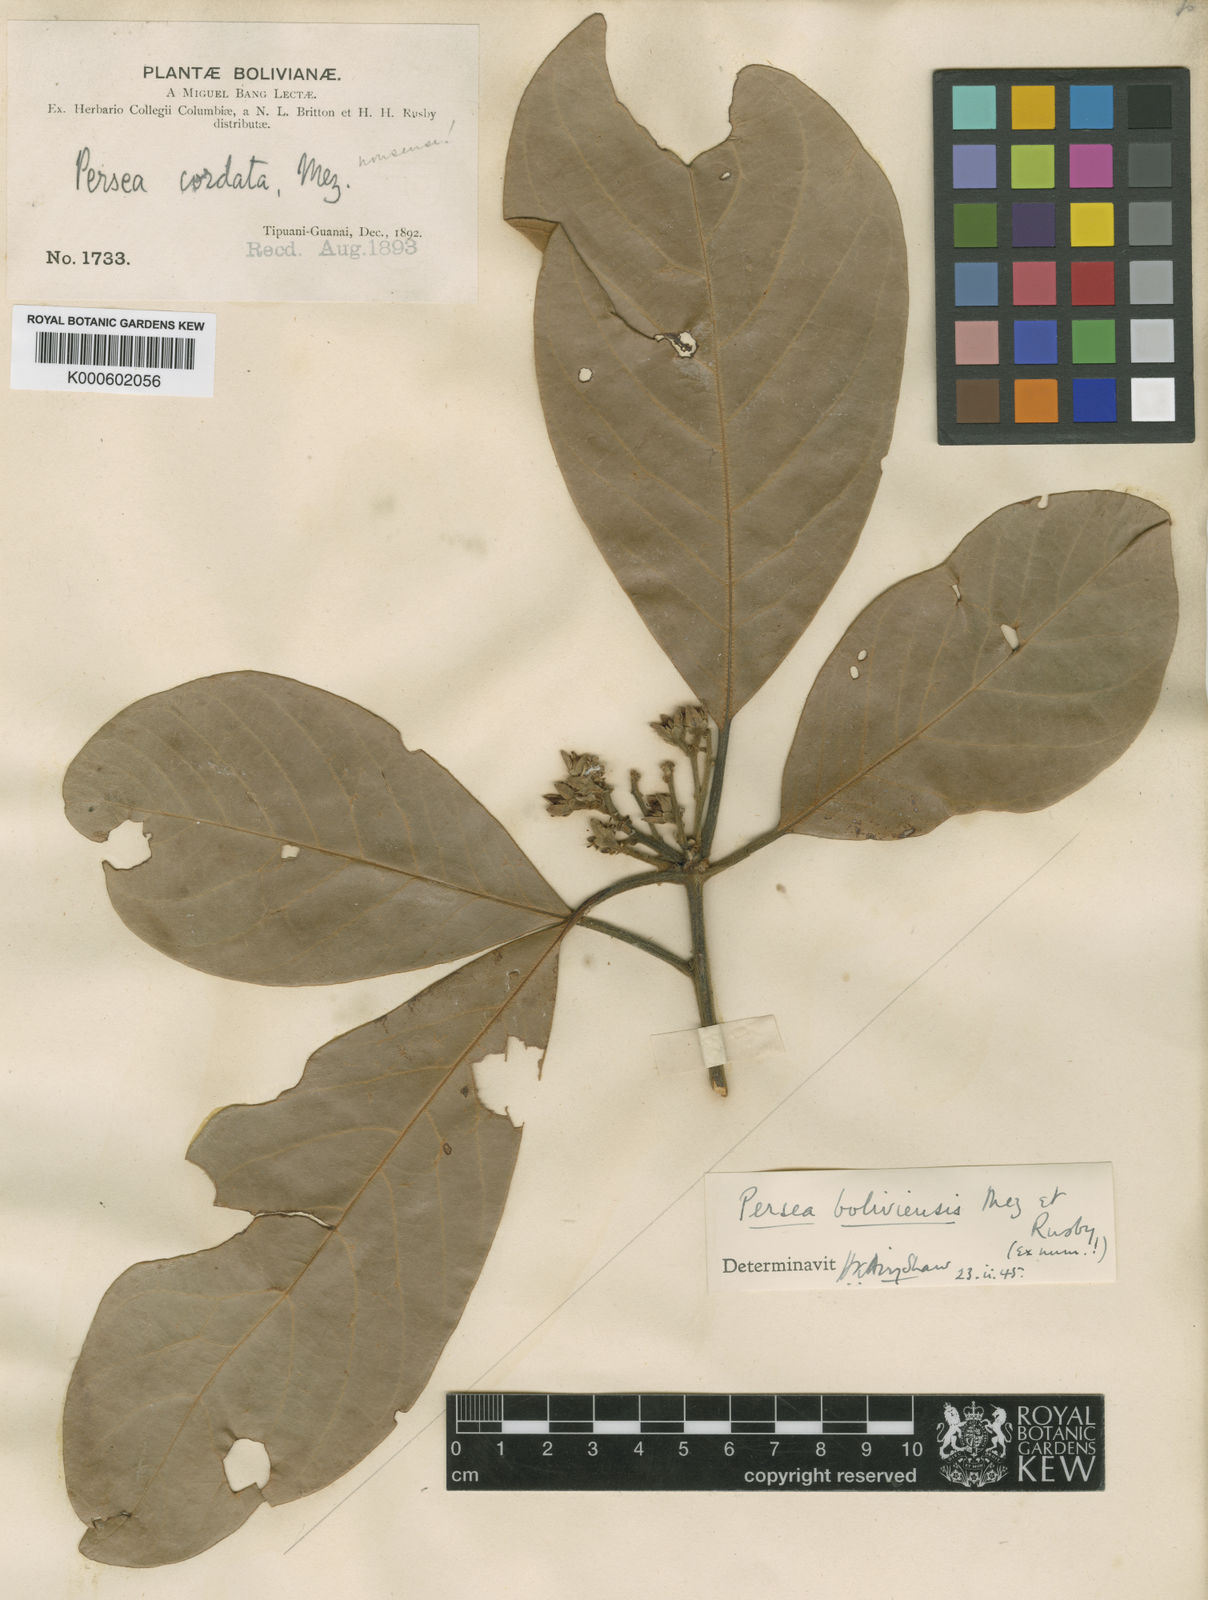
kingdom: Plantae
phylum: Tracheophyta
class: Magnoliopsida
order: Laurales
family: Lauraceae
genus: Persea
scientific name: Persea
